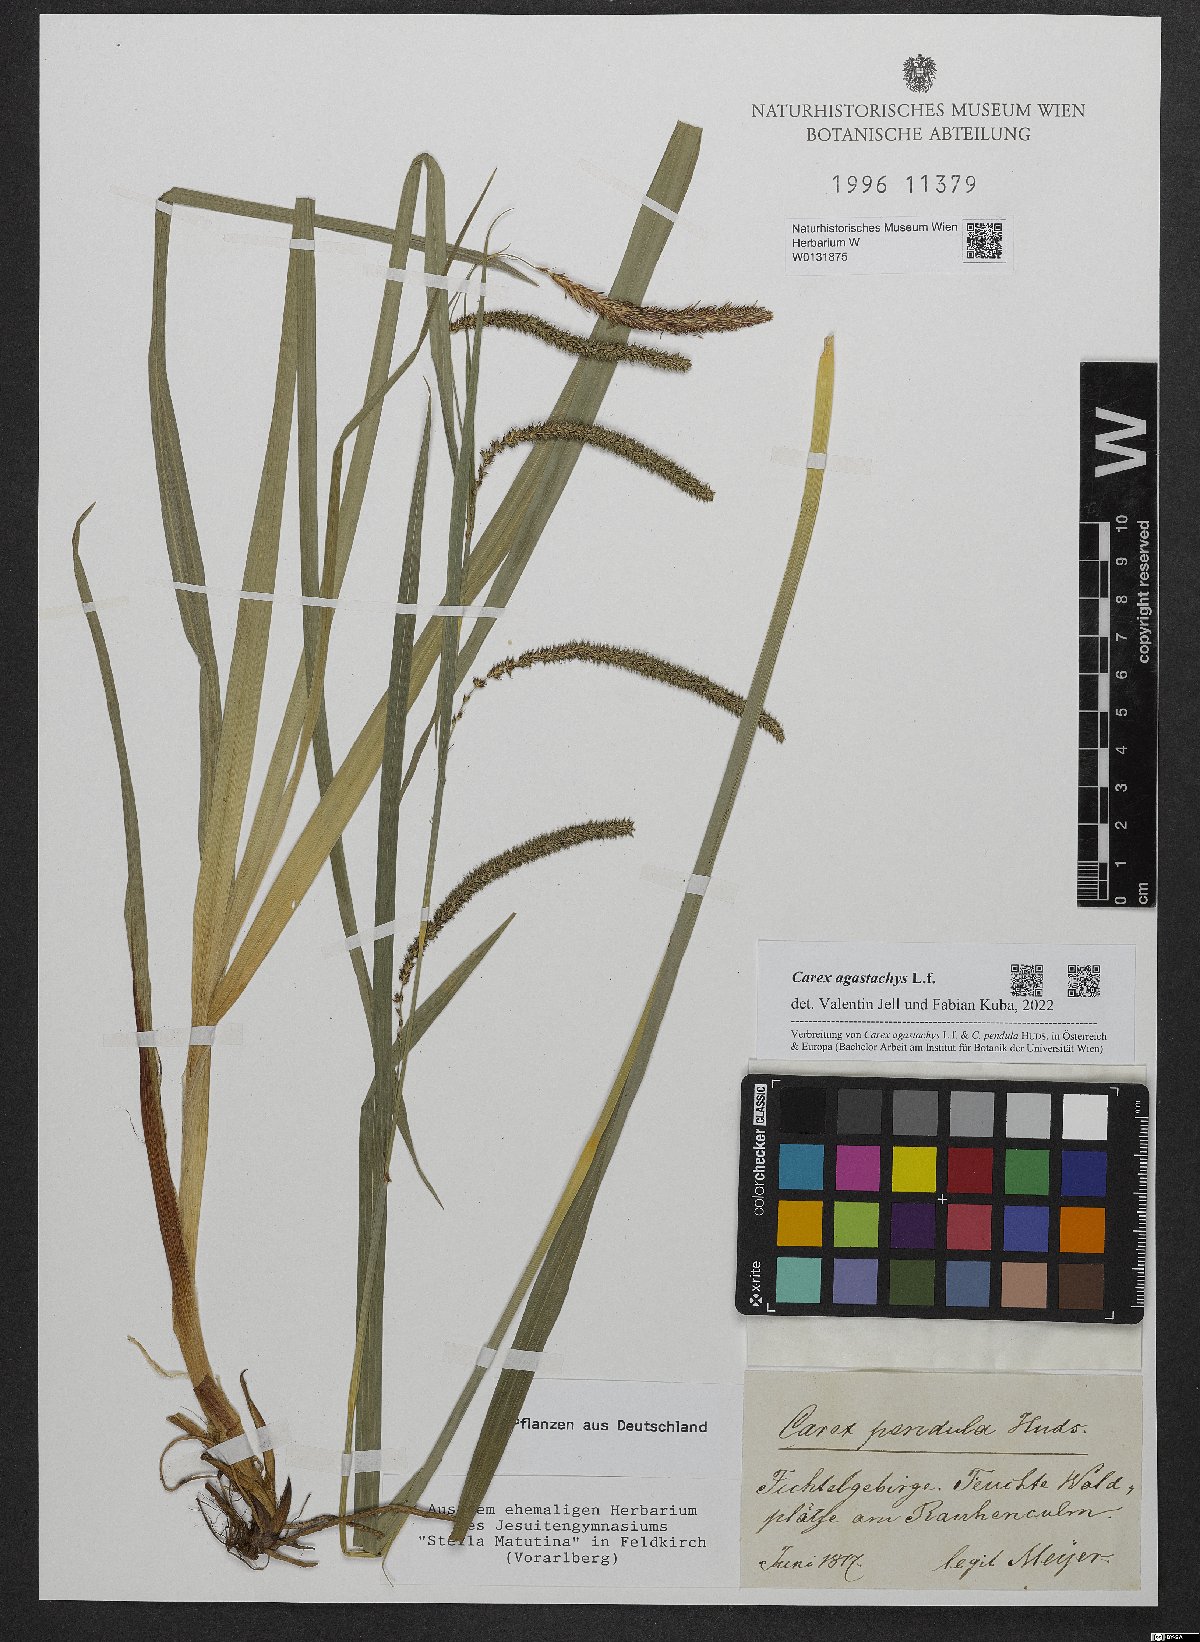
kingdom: Plantae
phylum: Tracheophyta
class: Liliopsida
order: Poales
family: Cyperaceae
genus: Carex
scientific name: Carex agastachys
